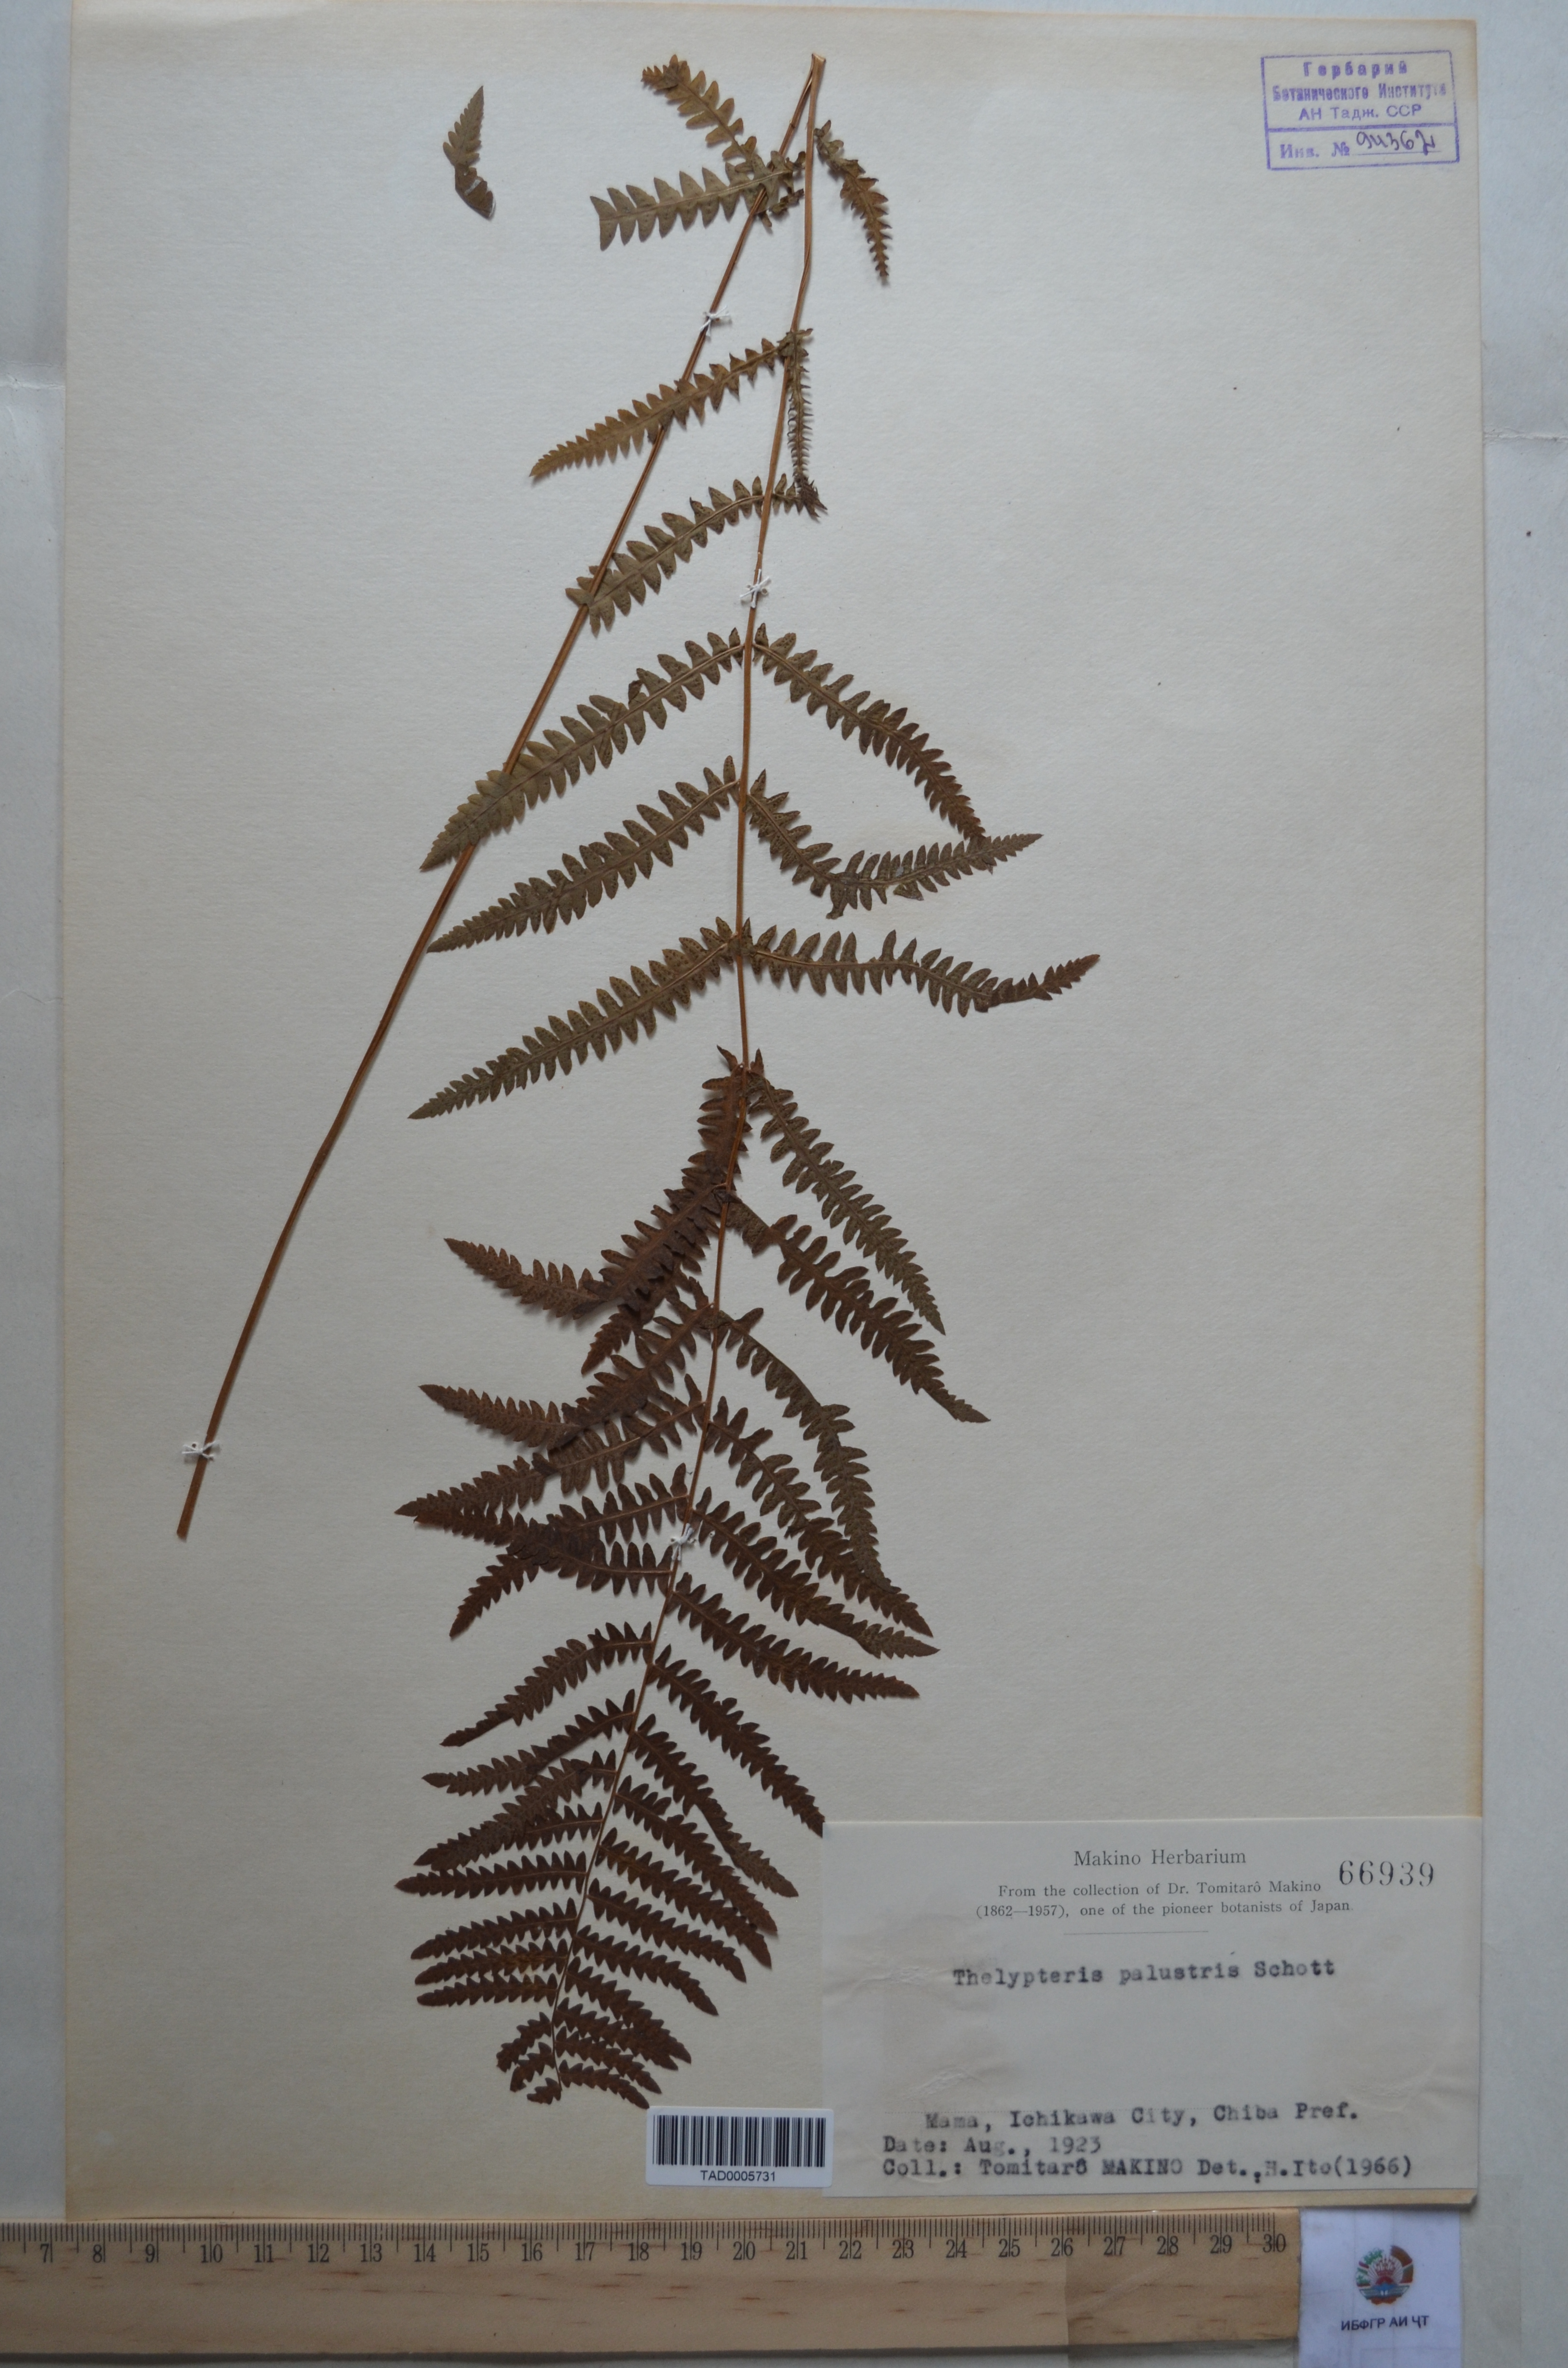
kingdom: Plantae
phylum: Tracheophyta
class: Polypodiopsida
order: Polypodiales
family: Thelypteridaceae
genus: Thelypteris
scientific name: Thelypteris palustris
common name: Marsh fern
